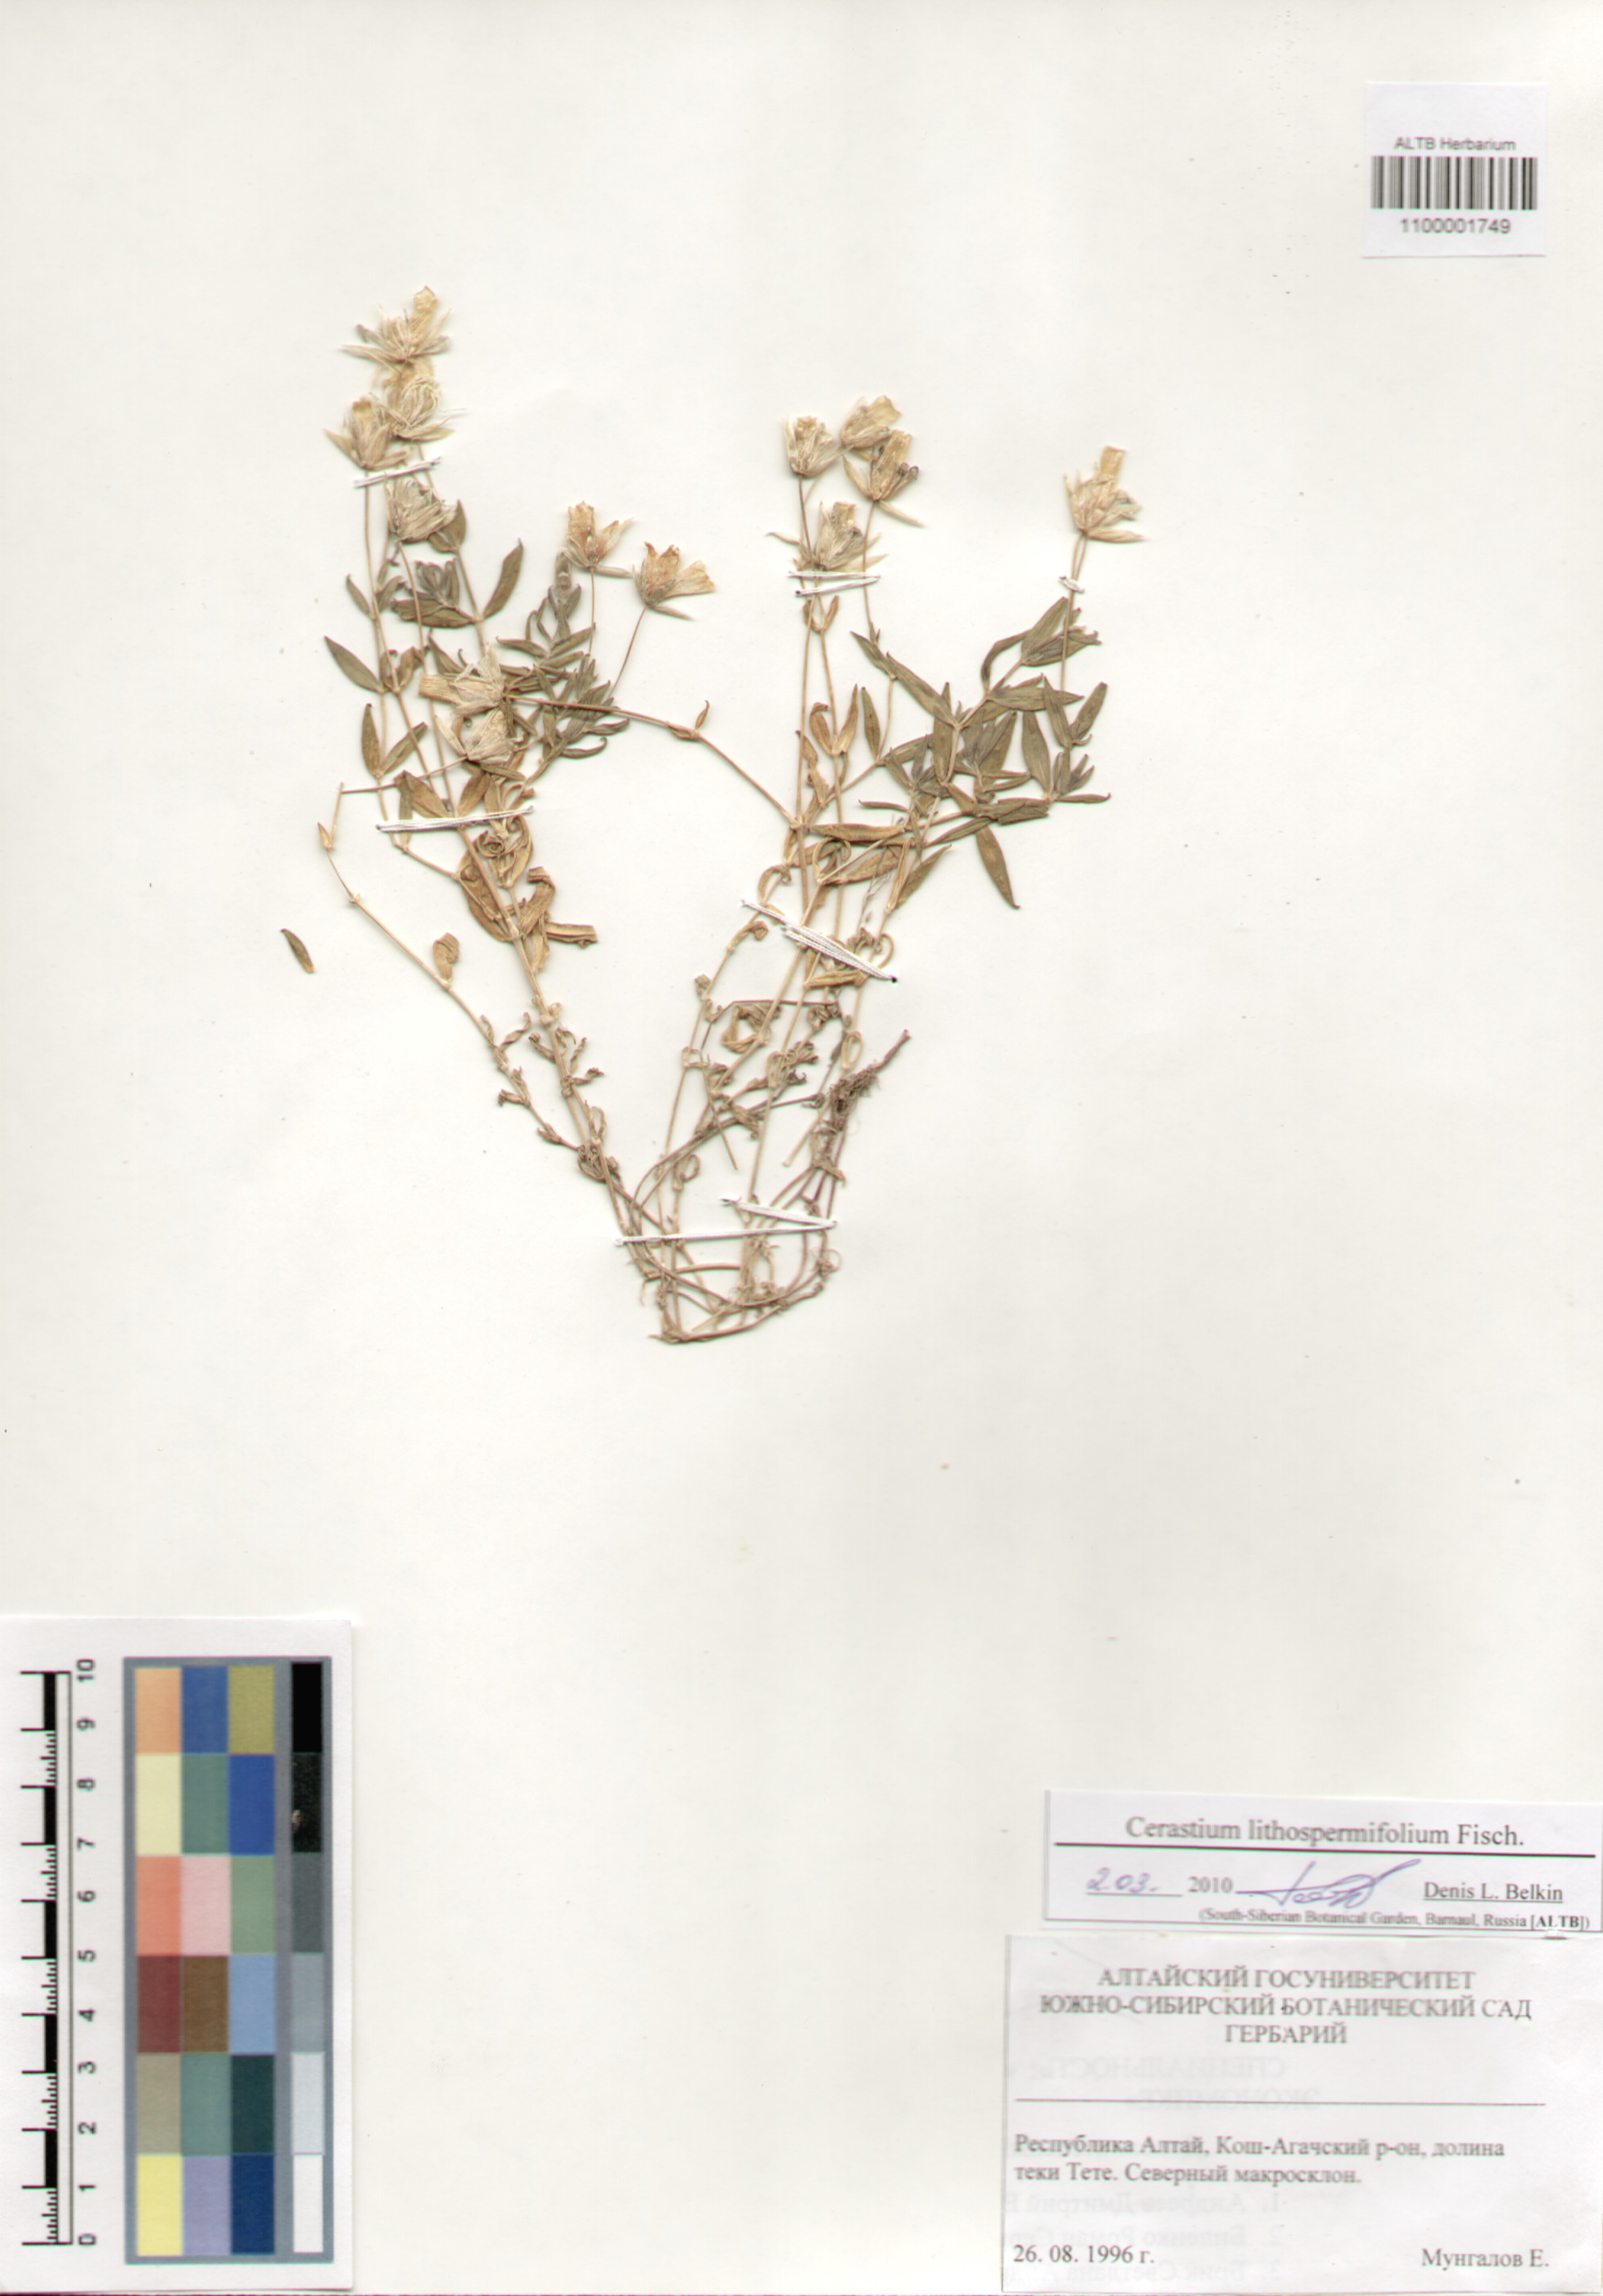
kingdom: Plantae
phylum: Tracheophyta
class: Magnoliopsida
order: Caryophyllales
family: Caryophyllaceae
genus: Cerastium
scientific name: Cerastium lithospermifolium
